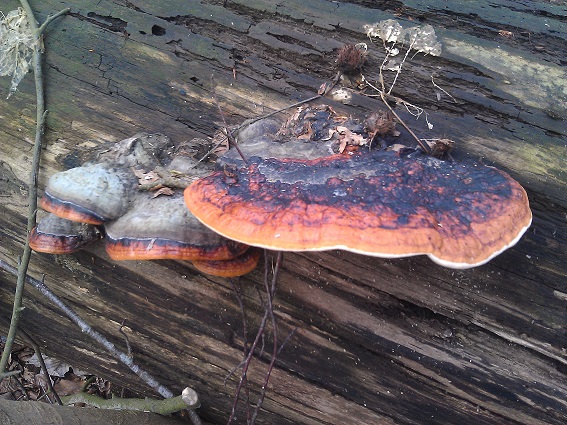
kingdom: Fungi
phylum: Basidiomycota
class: Agaricomycetes
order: Polyporales
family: Fomitopsidaceae
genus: Fomitopsis
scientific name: Fomitopsis pinicola
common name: randbæltet hovporesvamp
